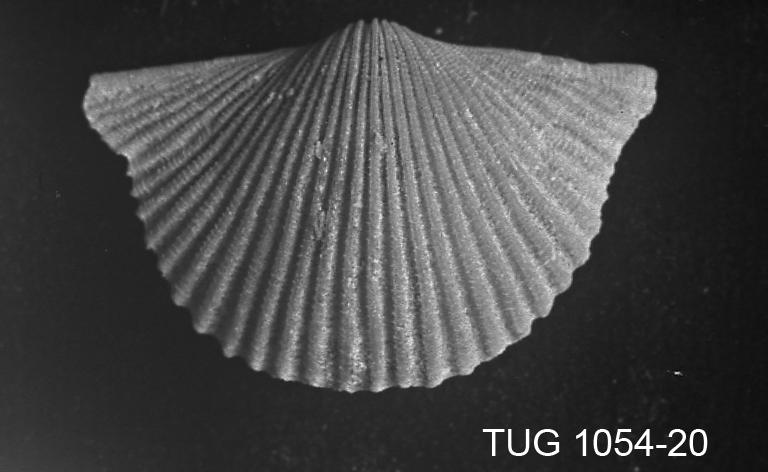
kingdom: Animalia
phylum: Brachiopoda
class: Rhynchonellata
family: Orthidae
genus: Cyrtonotella
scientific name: Cyrtonotella Orthis kuckersiana
